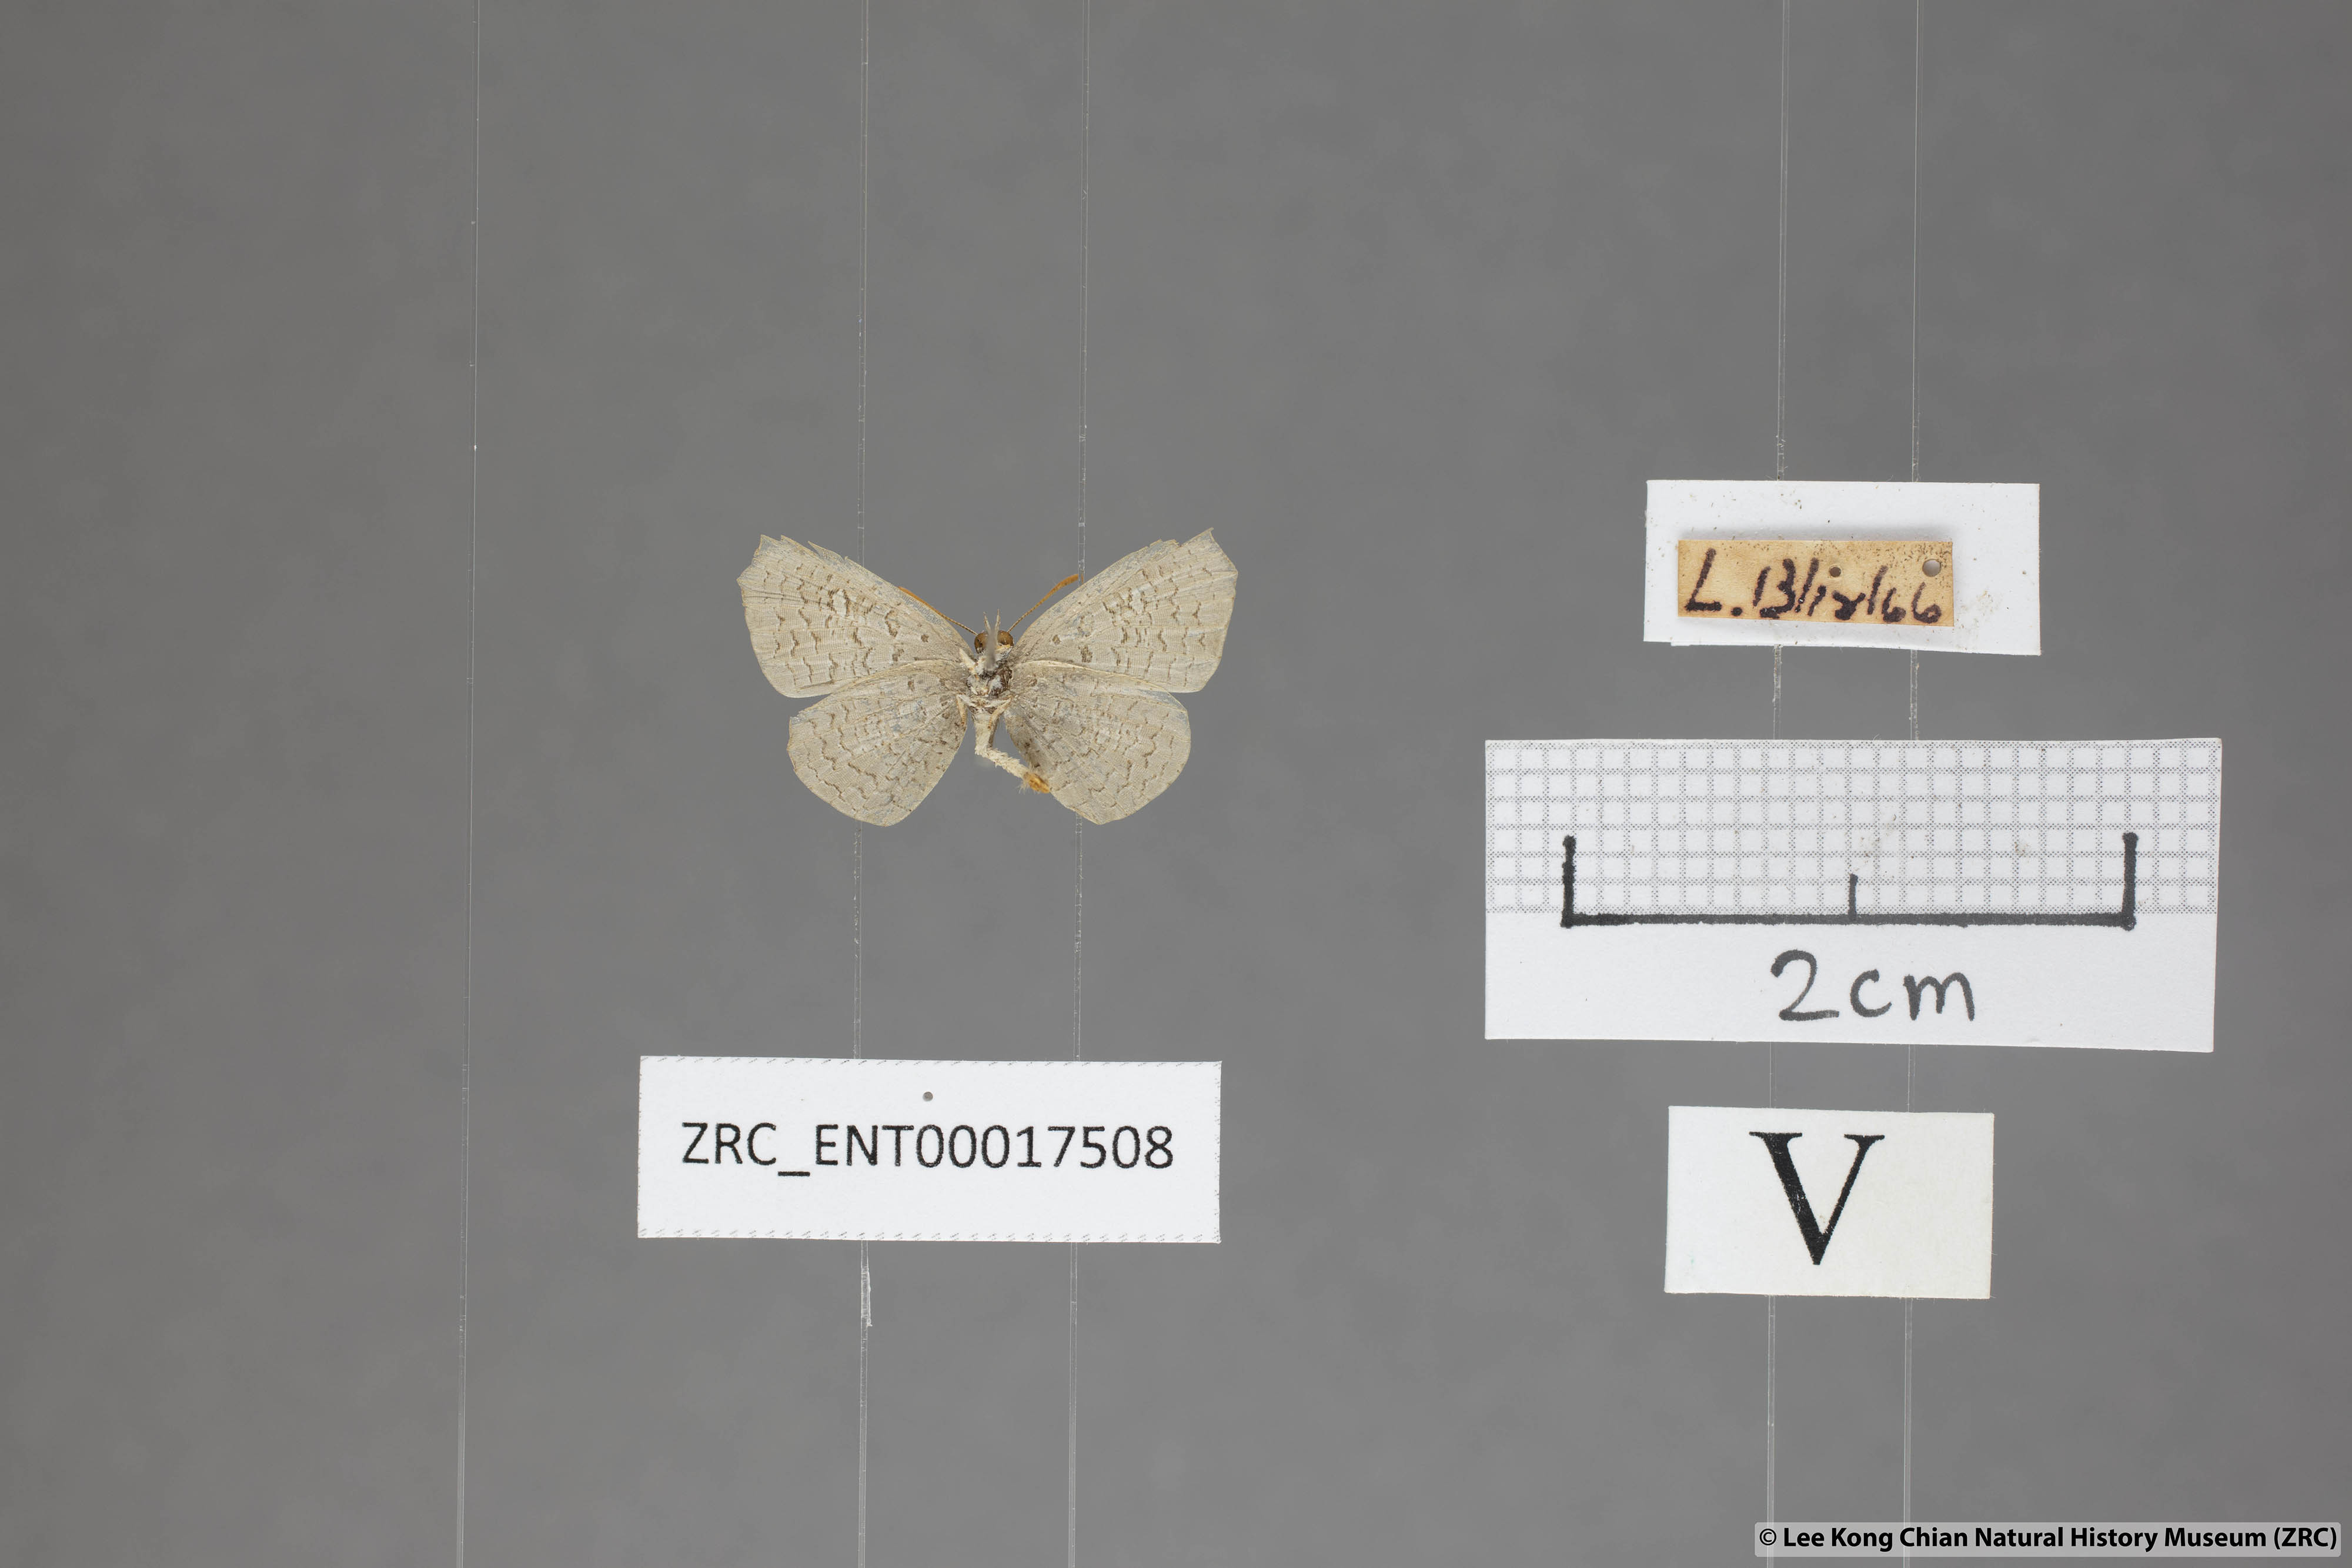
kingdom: Animalia
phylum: Arthropoda
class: Insecta
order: Lepidoptera
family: Lycaenidae
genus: Spalgis
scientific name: Spalgis epeus
